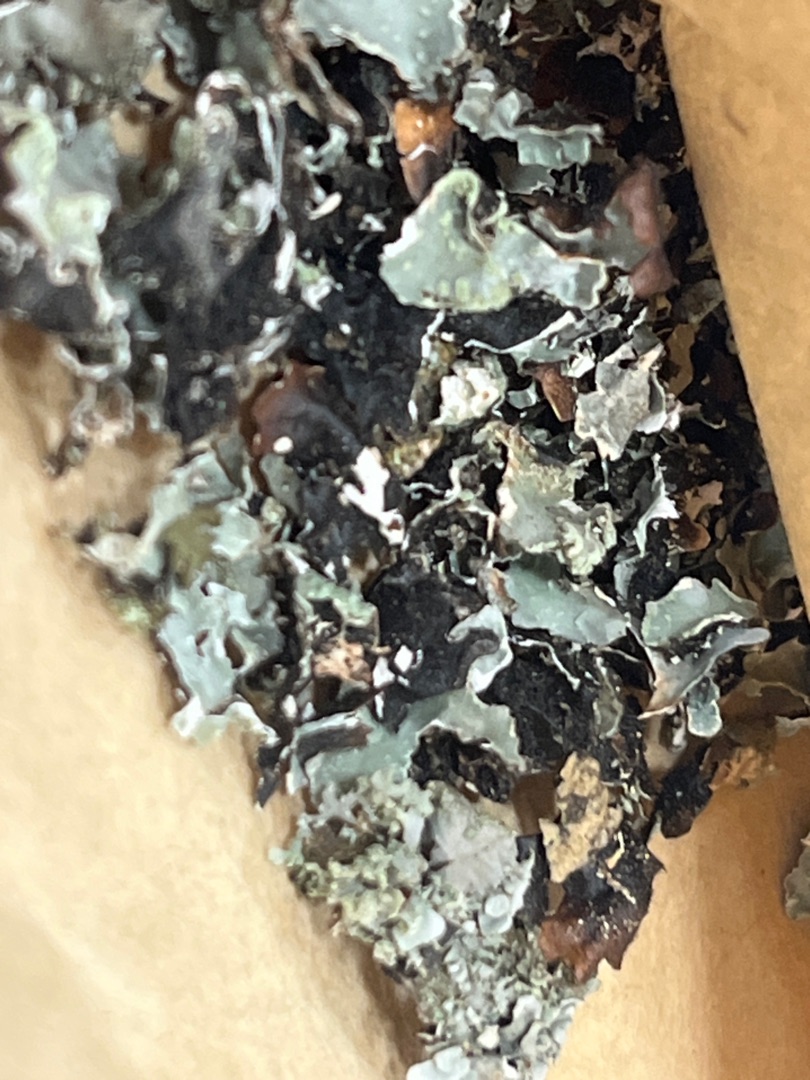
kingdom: Fungi
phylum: Ascomycota
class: Lecanoromycetes
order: Lecanorales
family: Parmeliaceae
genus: Parmelia
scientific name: Parmelia sulcata
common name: Rynket skållav
